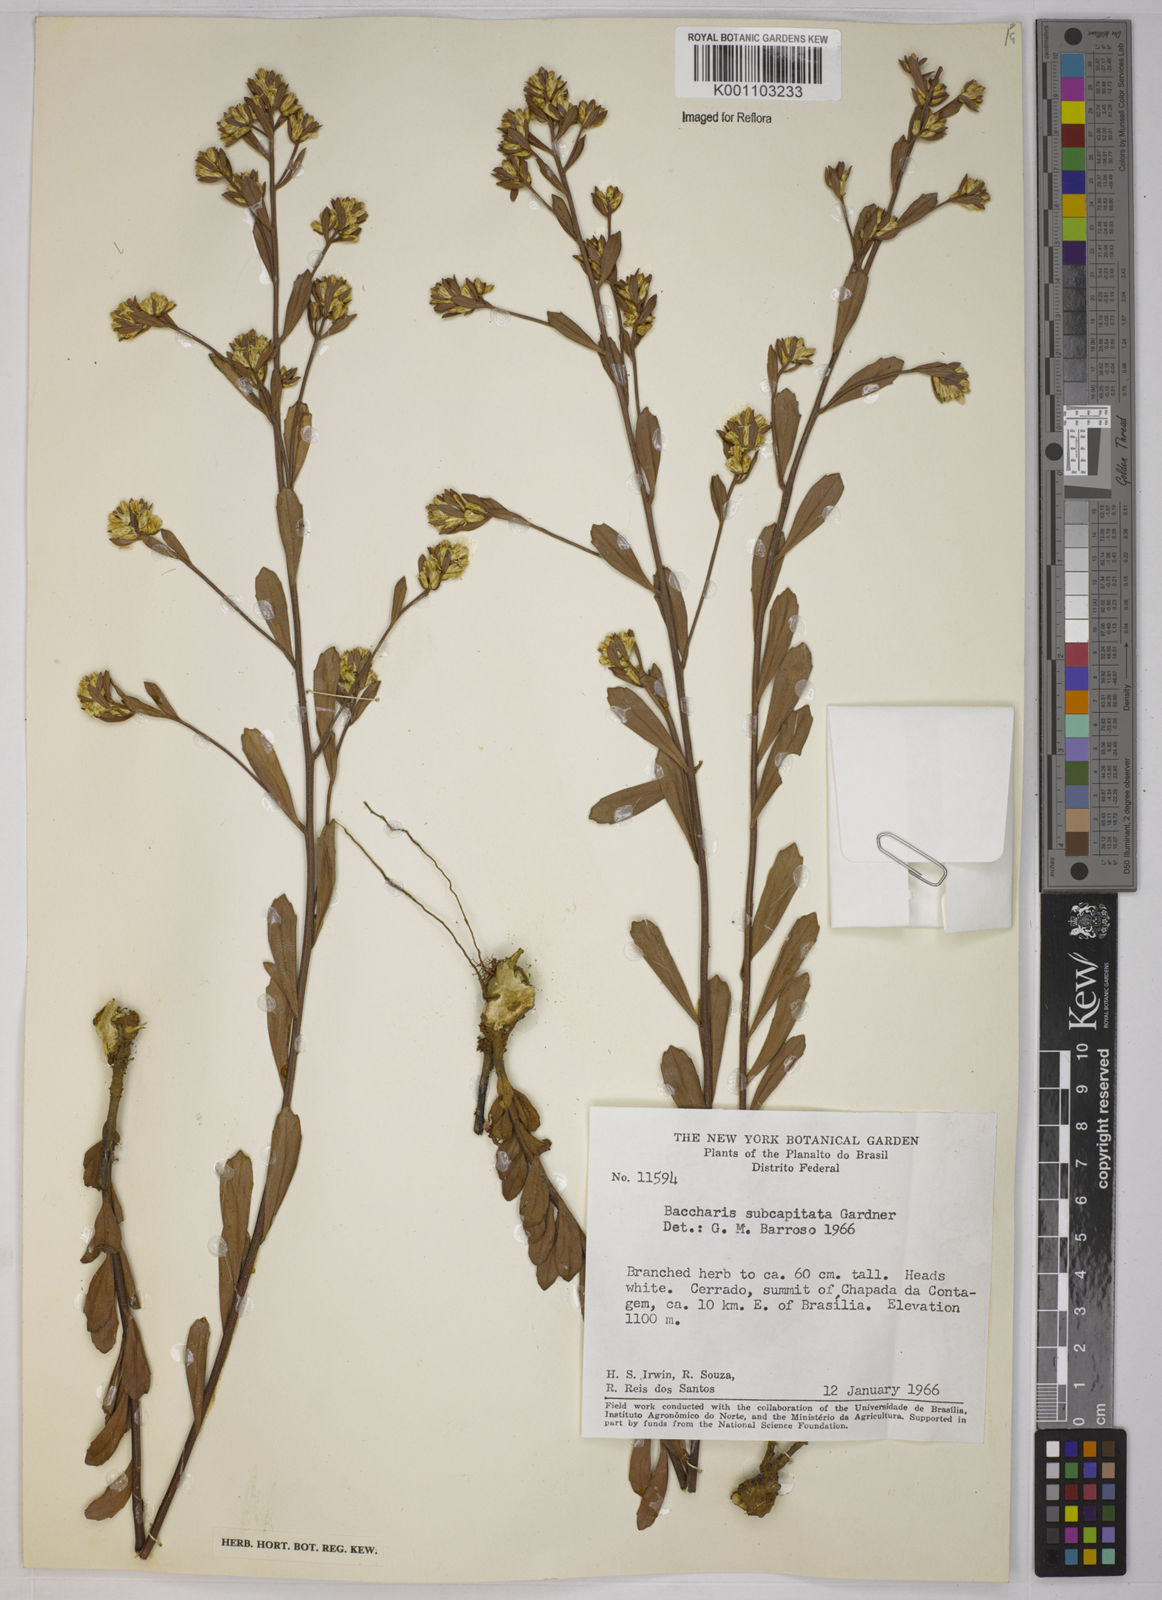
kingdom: Plantae
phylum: Tracheophyta
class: Magnoliopsida
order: Asterales
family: Asteraceae
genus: Baccharis
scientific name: Baccharis subdentata
